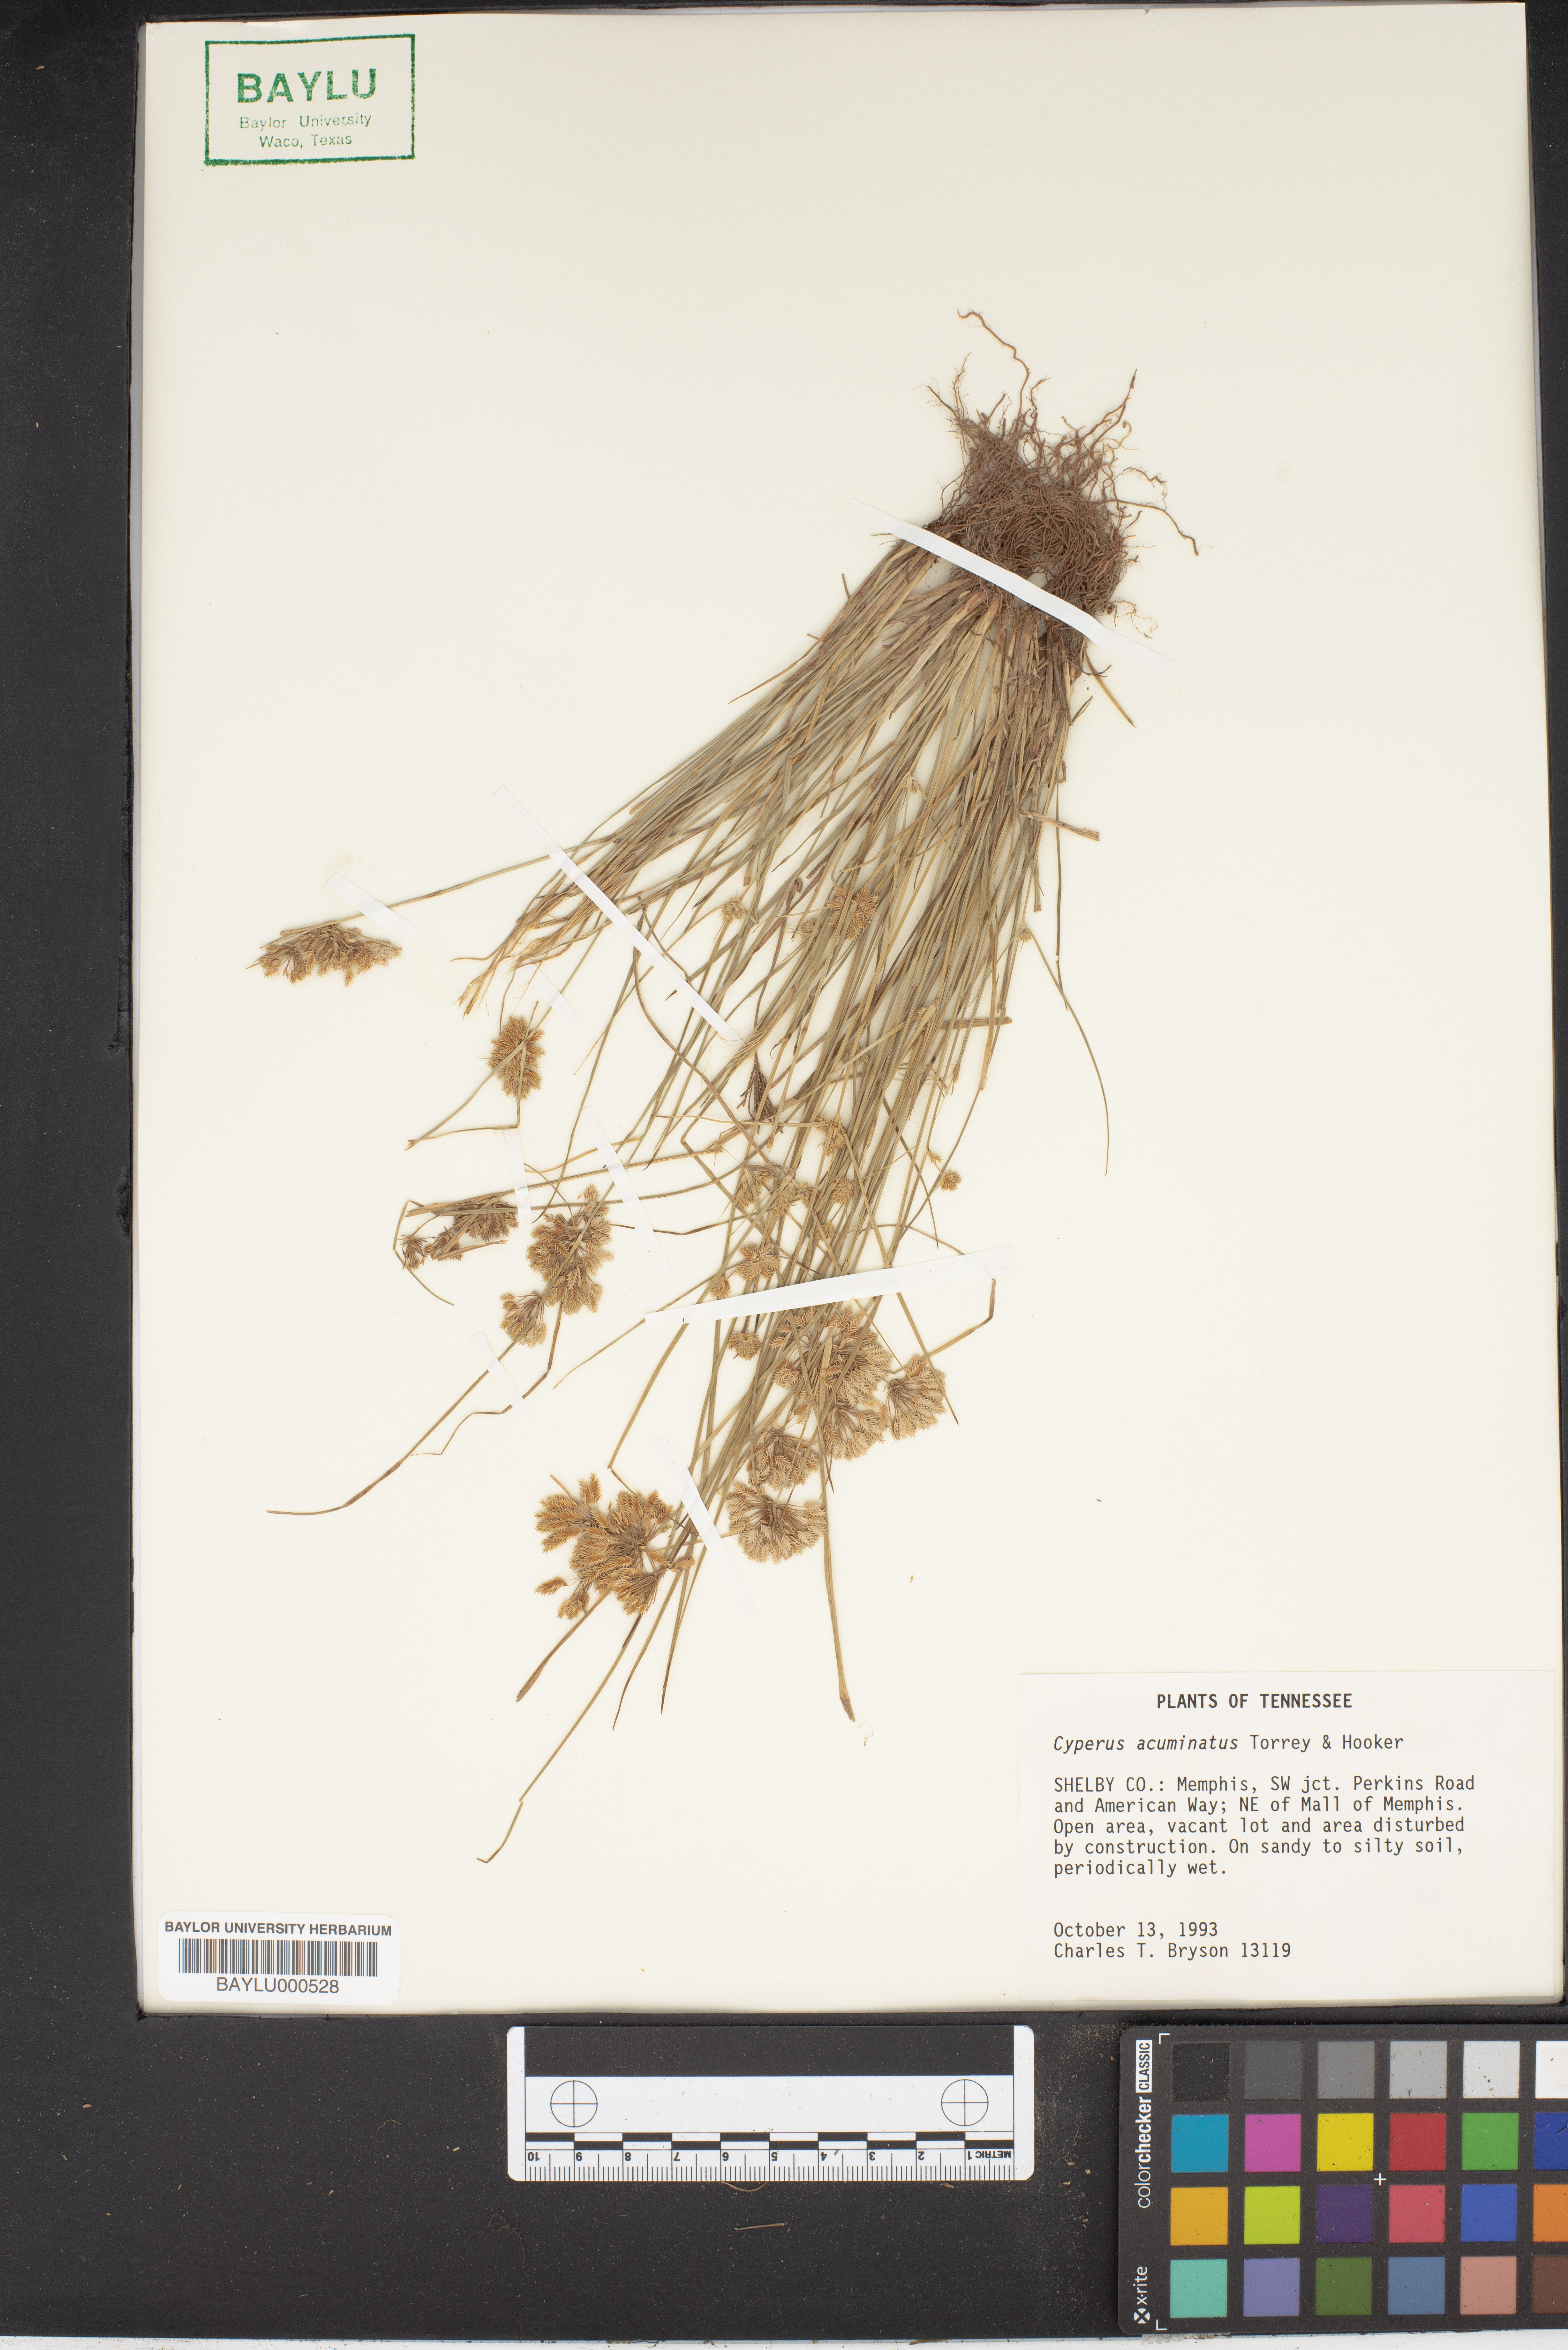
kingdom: Plantae
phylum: Tracheophyta
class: Liliopsida
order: Poales
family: Cyperaceae
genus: Cyperus
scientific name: Cyperus acuminatus
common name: Short-pointed cyperus
